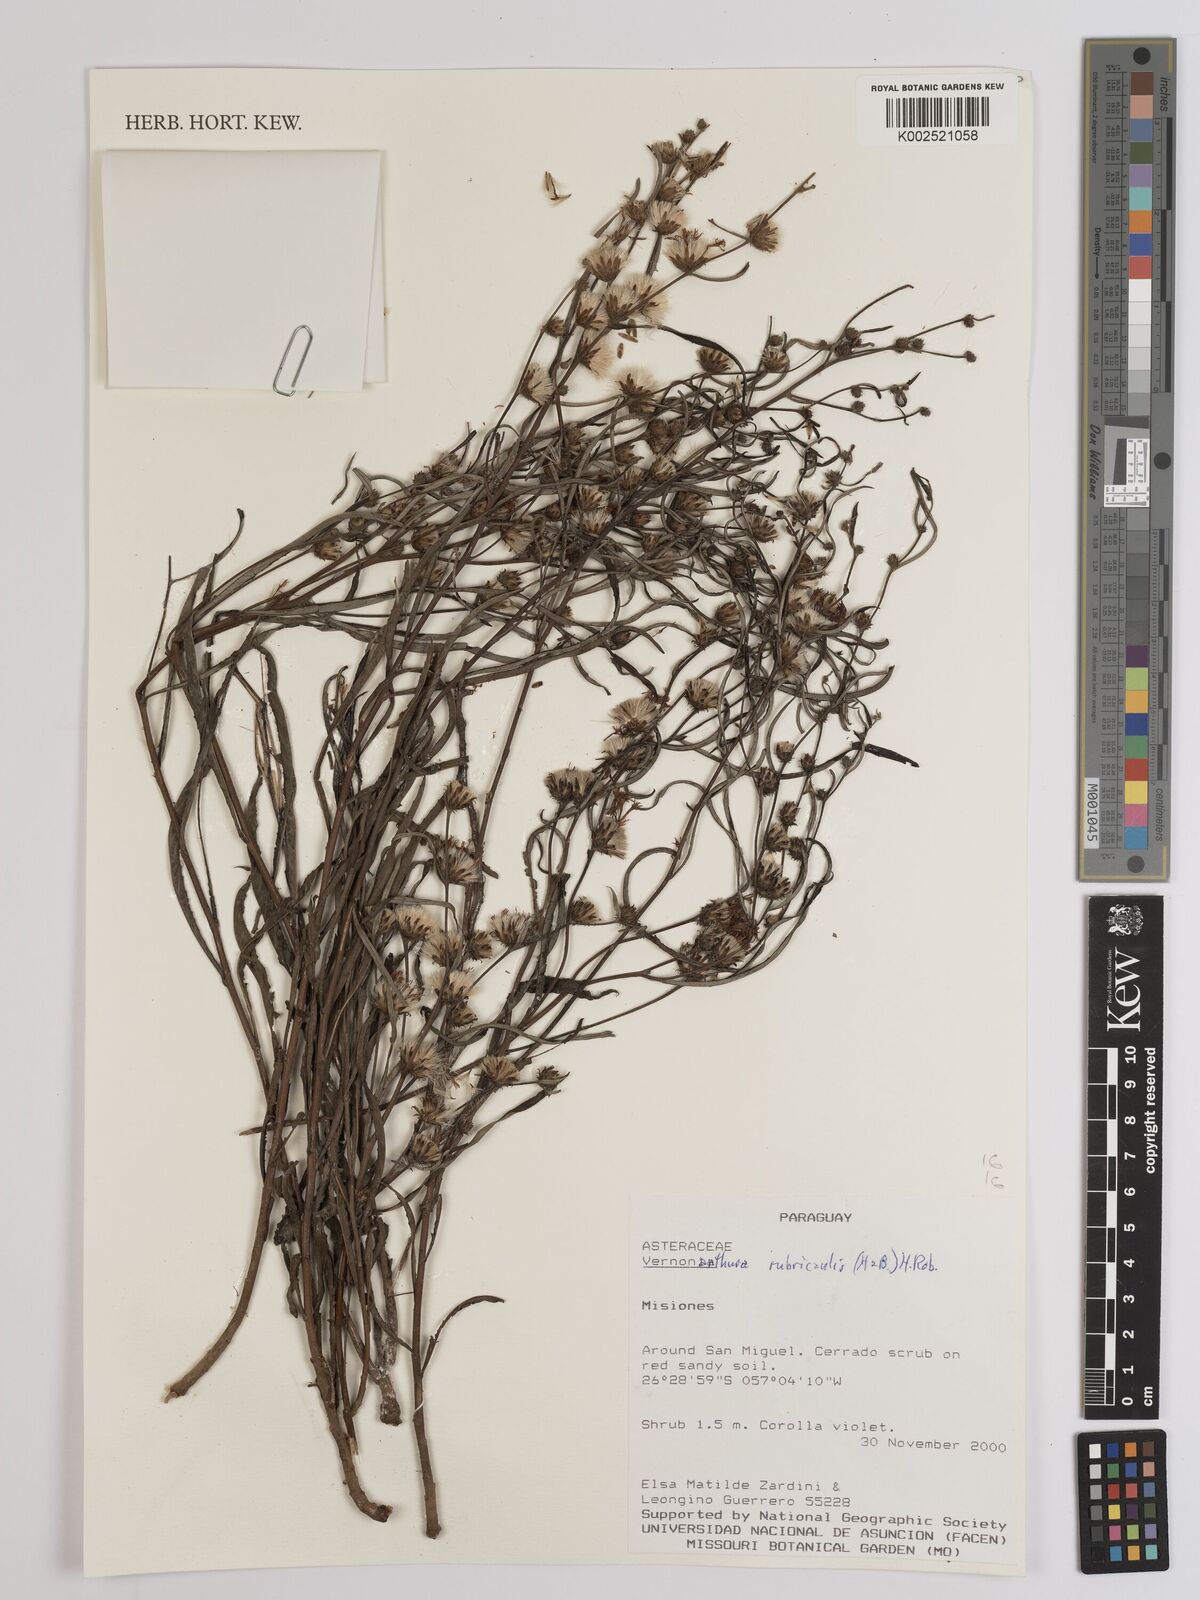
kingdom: Plantae
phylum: Tracheophyta
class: Magnoliopsida
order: Asterales
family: Asteraceae
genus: Lessingianthus
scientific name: Lessingianthus rubricaulis
